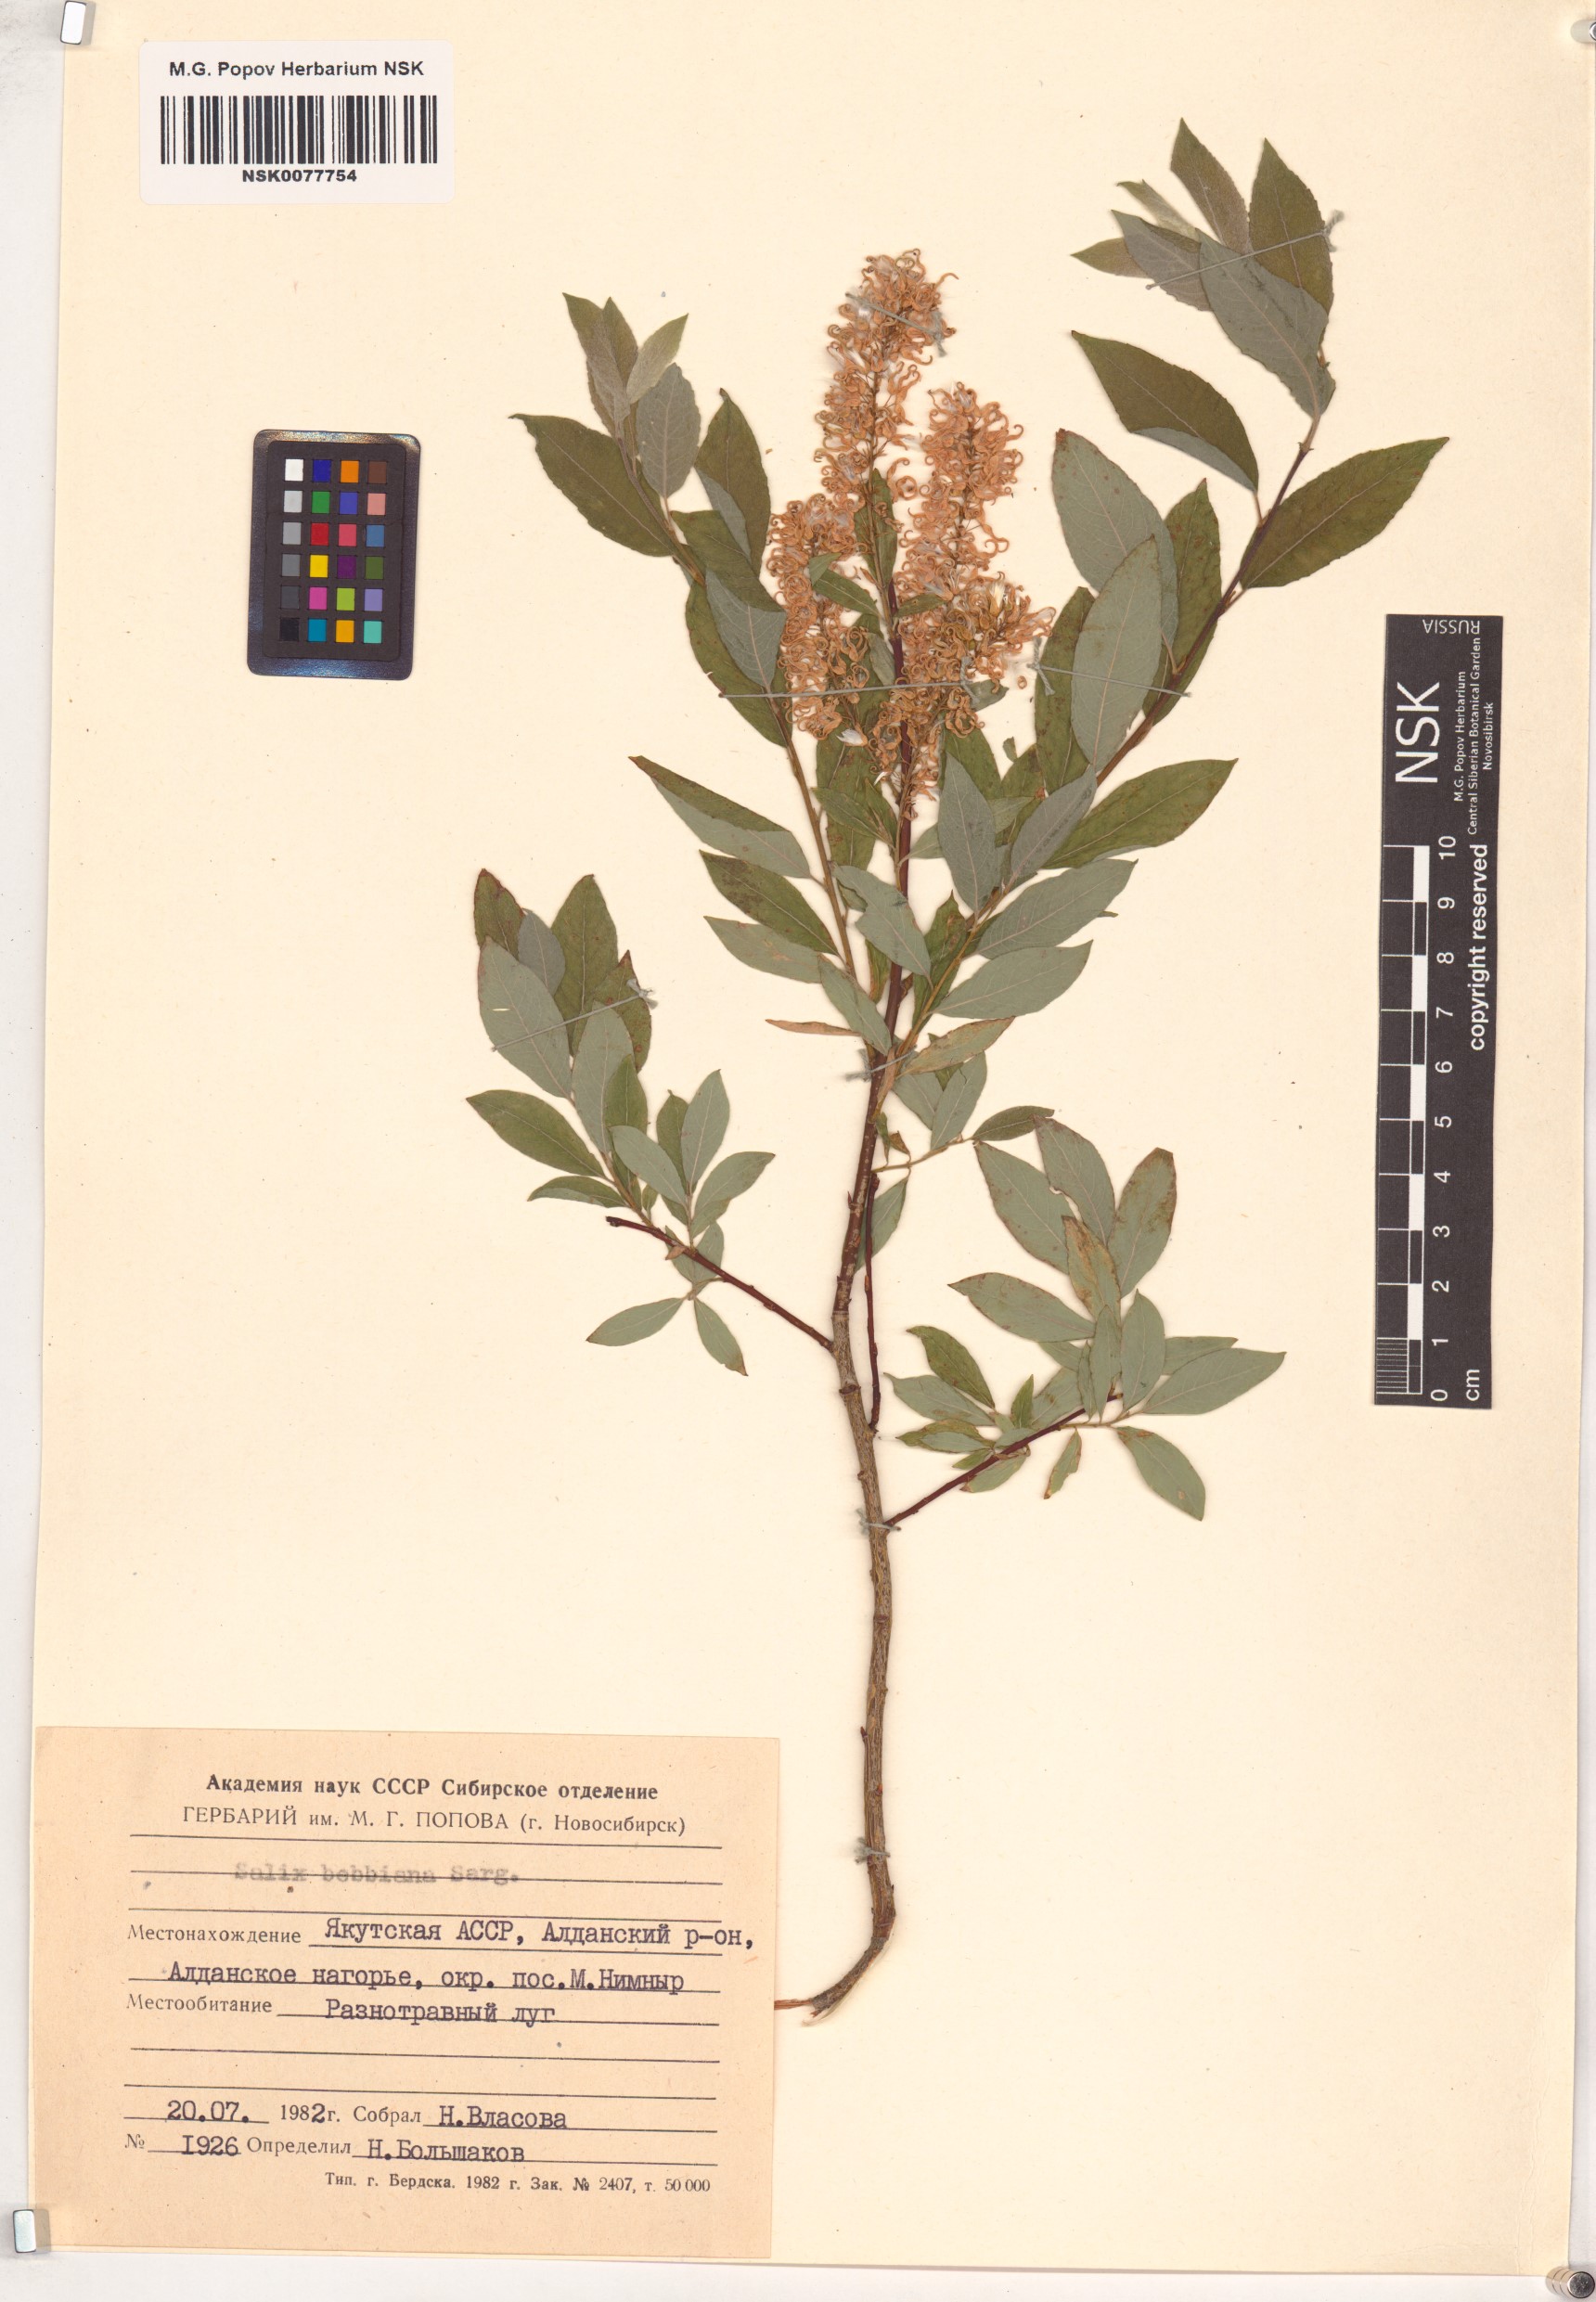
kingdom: Plantae
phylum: Tracheophyta
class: Magnoliopsida
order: Malpighiales
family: Salicaceae
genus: Salix
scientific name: Salix bebbiana
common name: Bebb's willow
